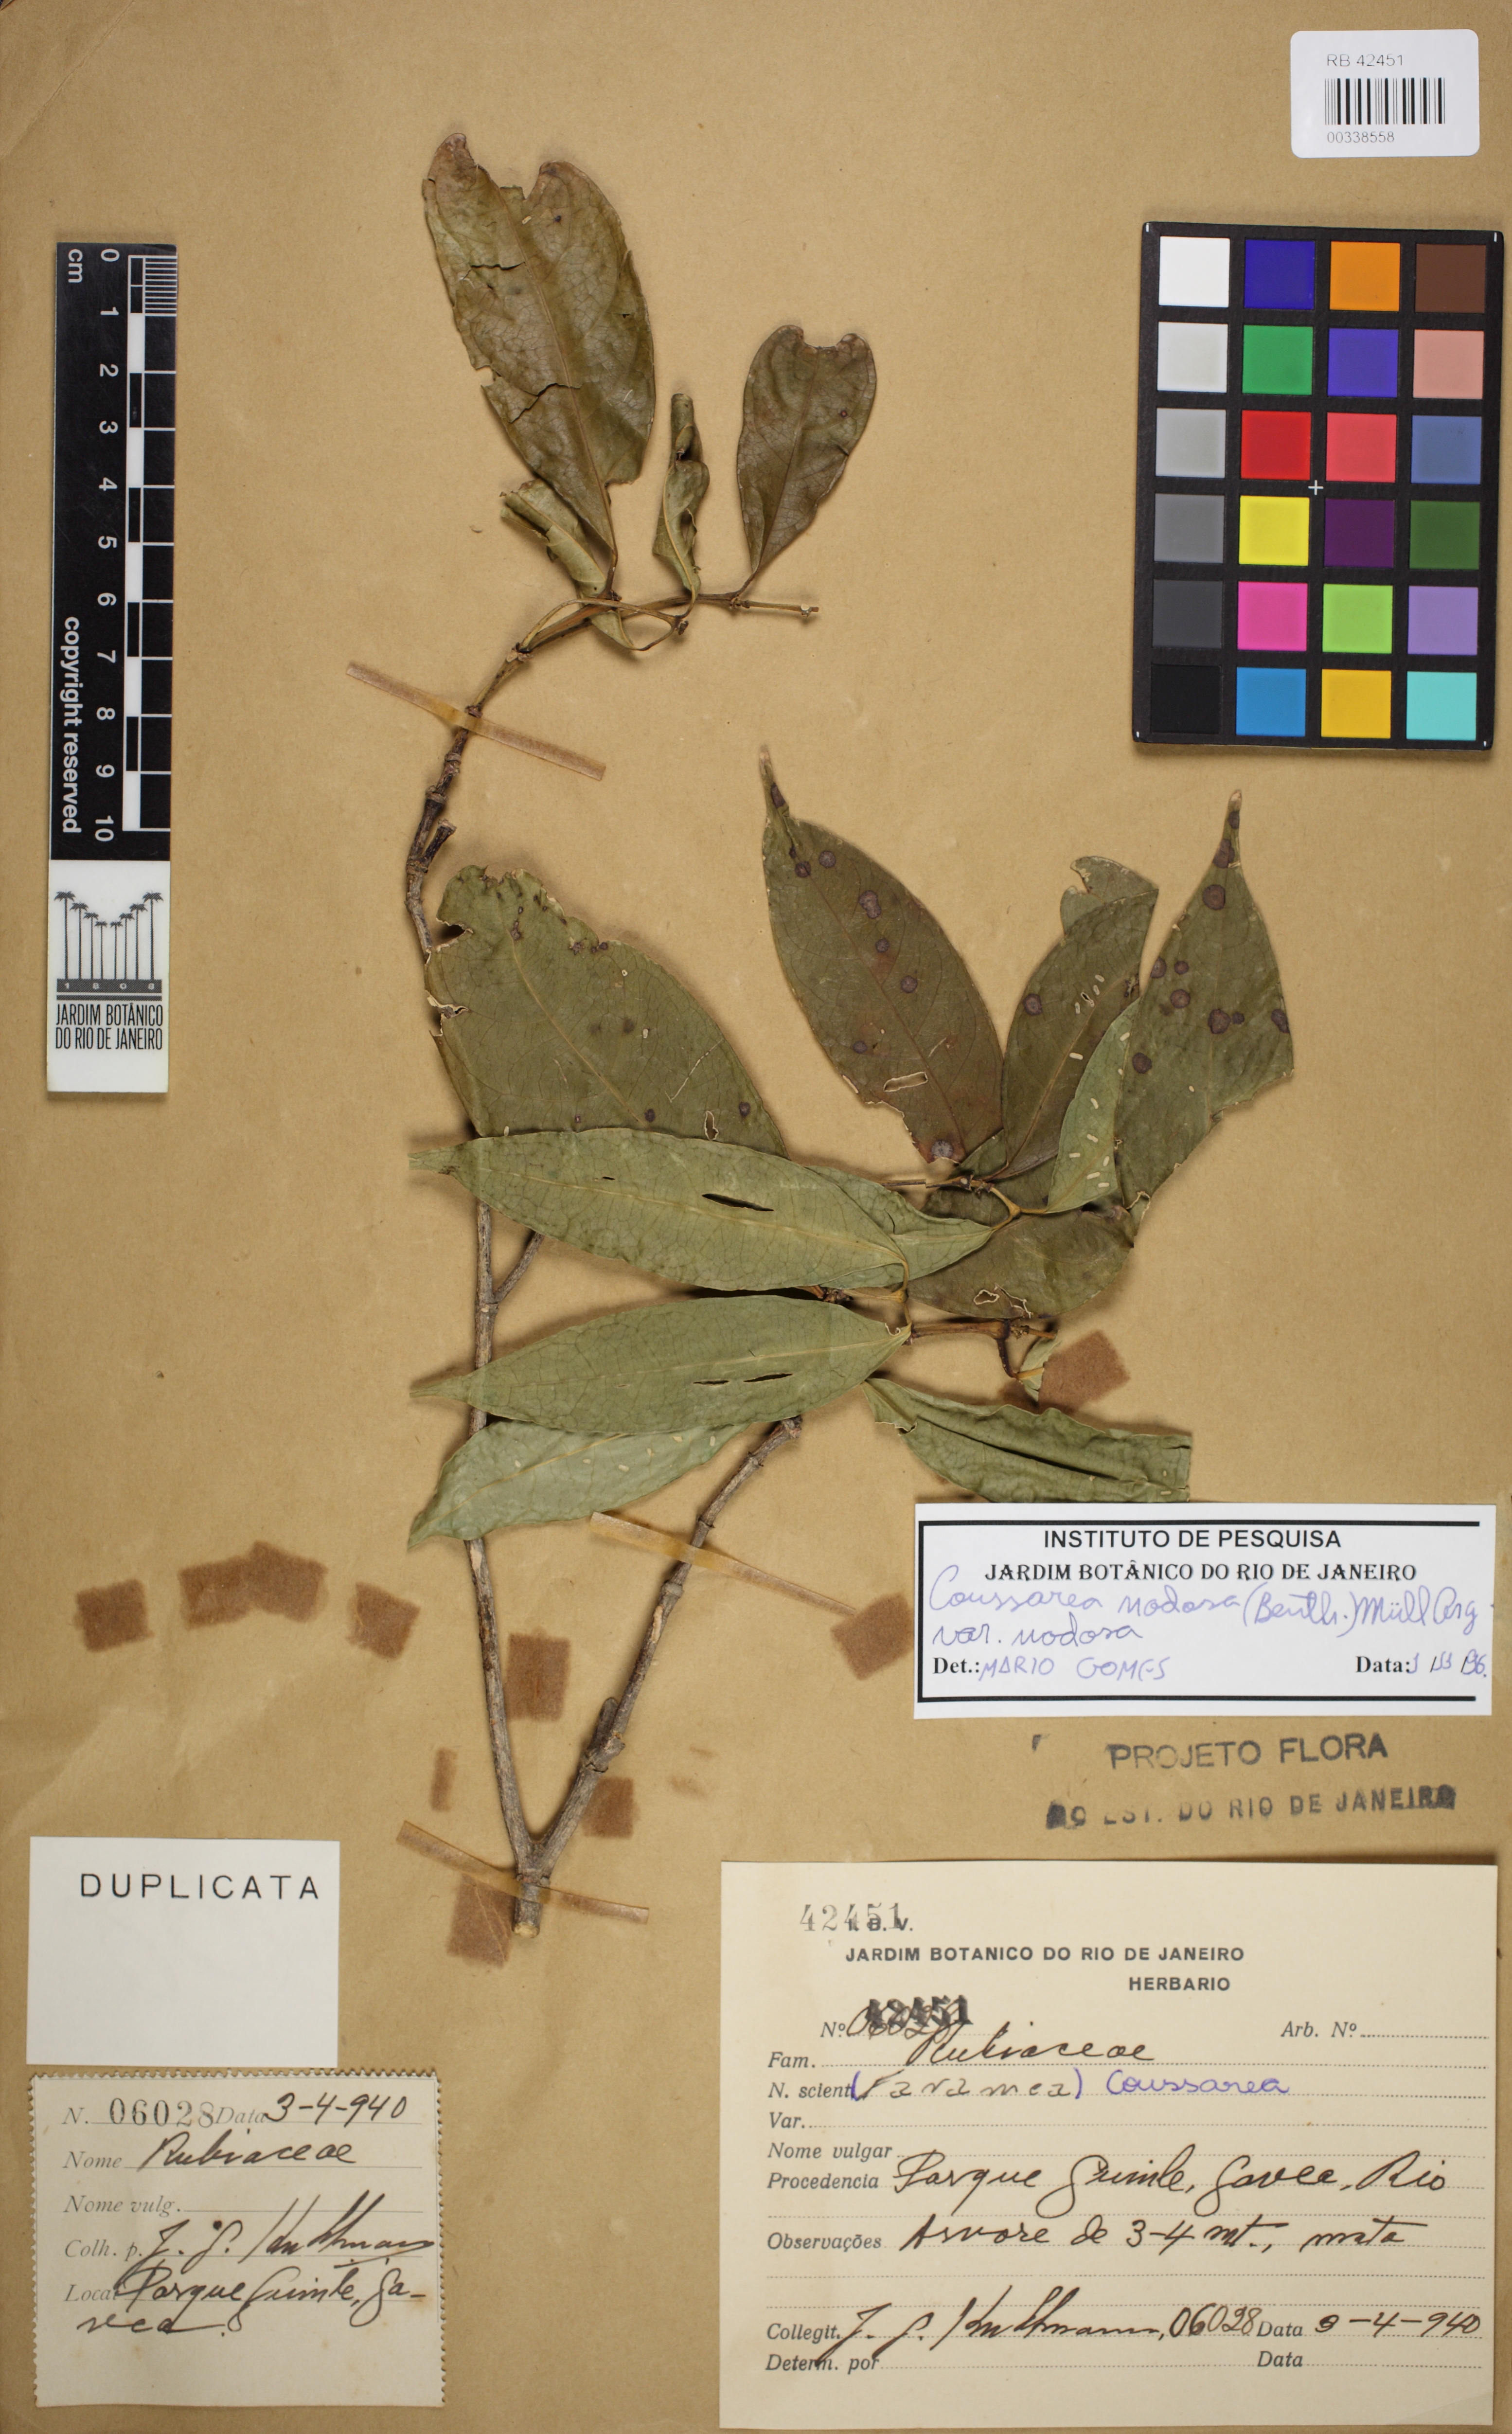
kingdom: Plantae
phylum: Tracheophyta
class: Magnoliopsida
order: Gentianales
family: Rubiaceae
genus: Coussarea
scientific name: Coussarea nodosa
